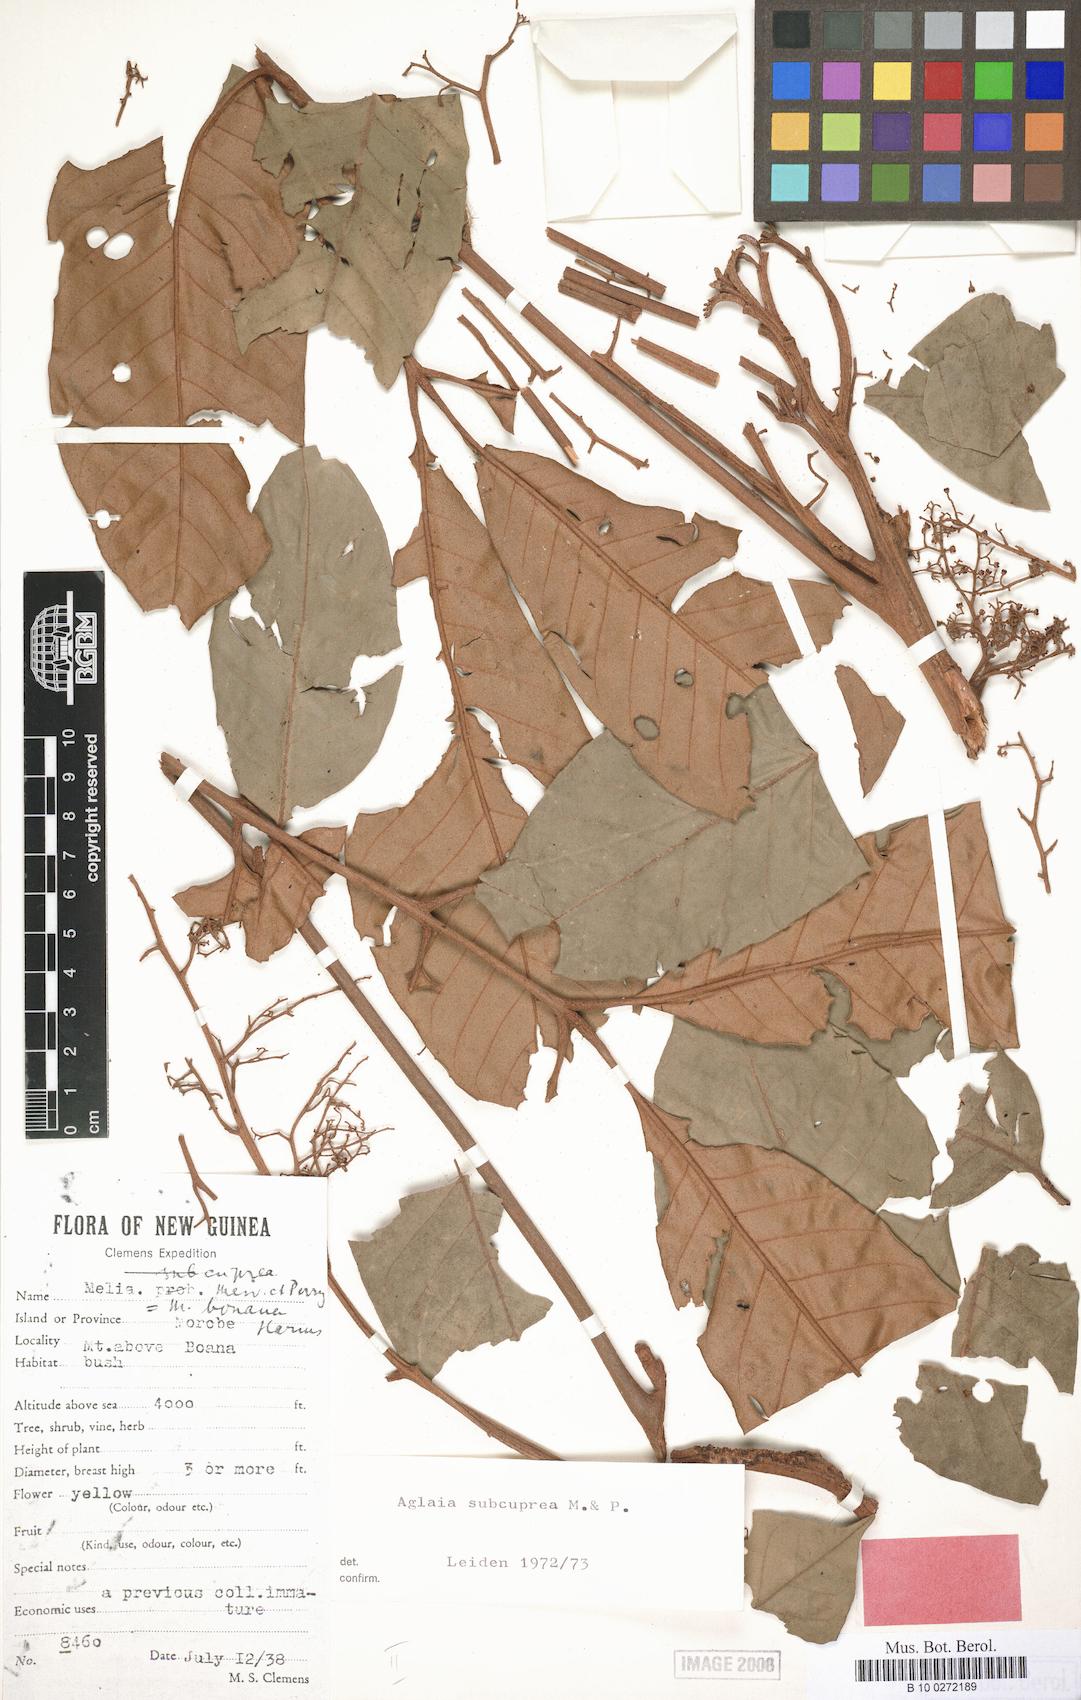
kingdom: Plantae
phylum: Tracheophyta
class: Magnoliopsida
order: Sapindales
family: Meliaceae
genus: Aglaia
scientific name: Aglaia subcuprea
